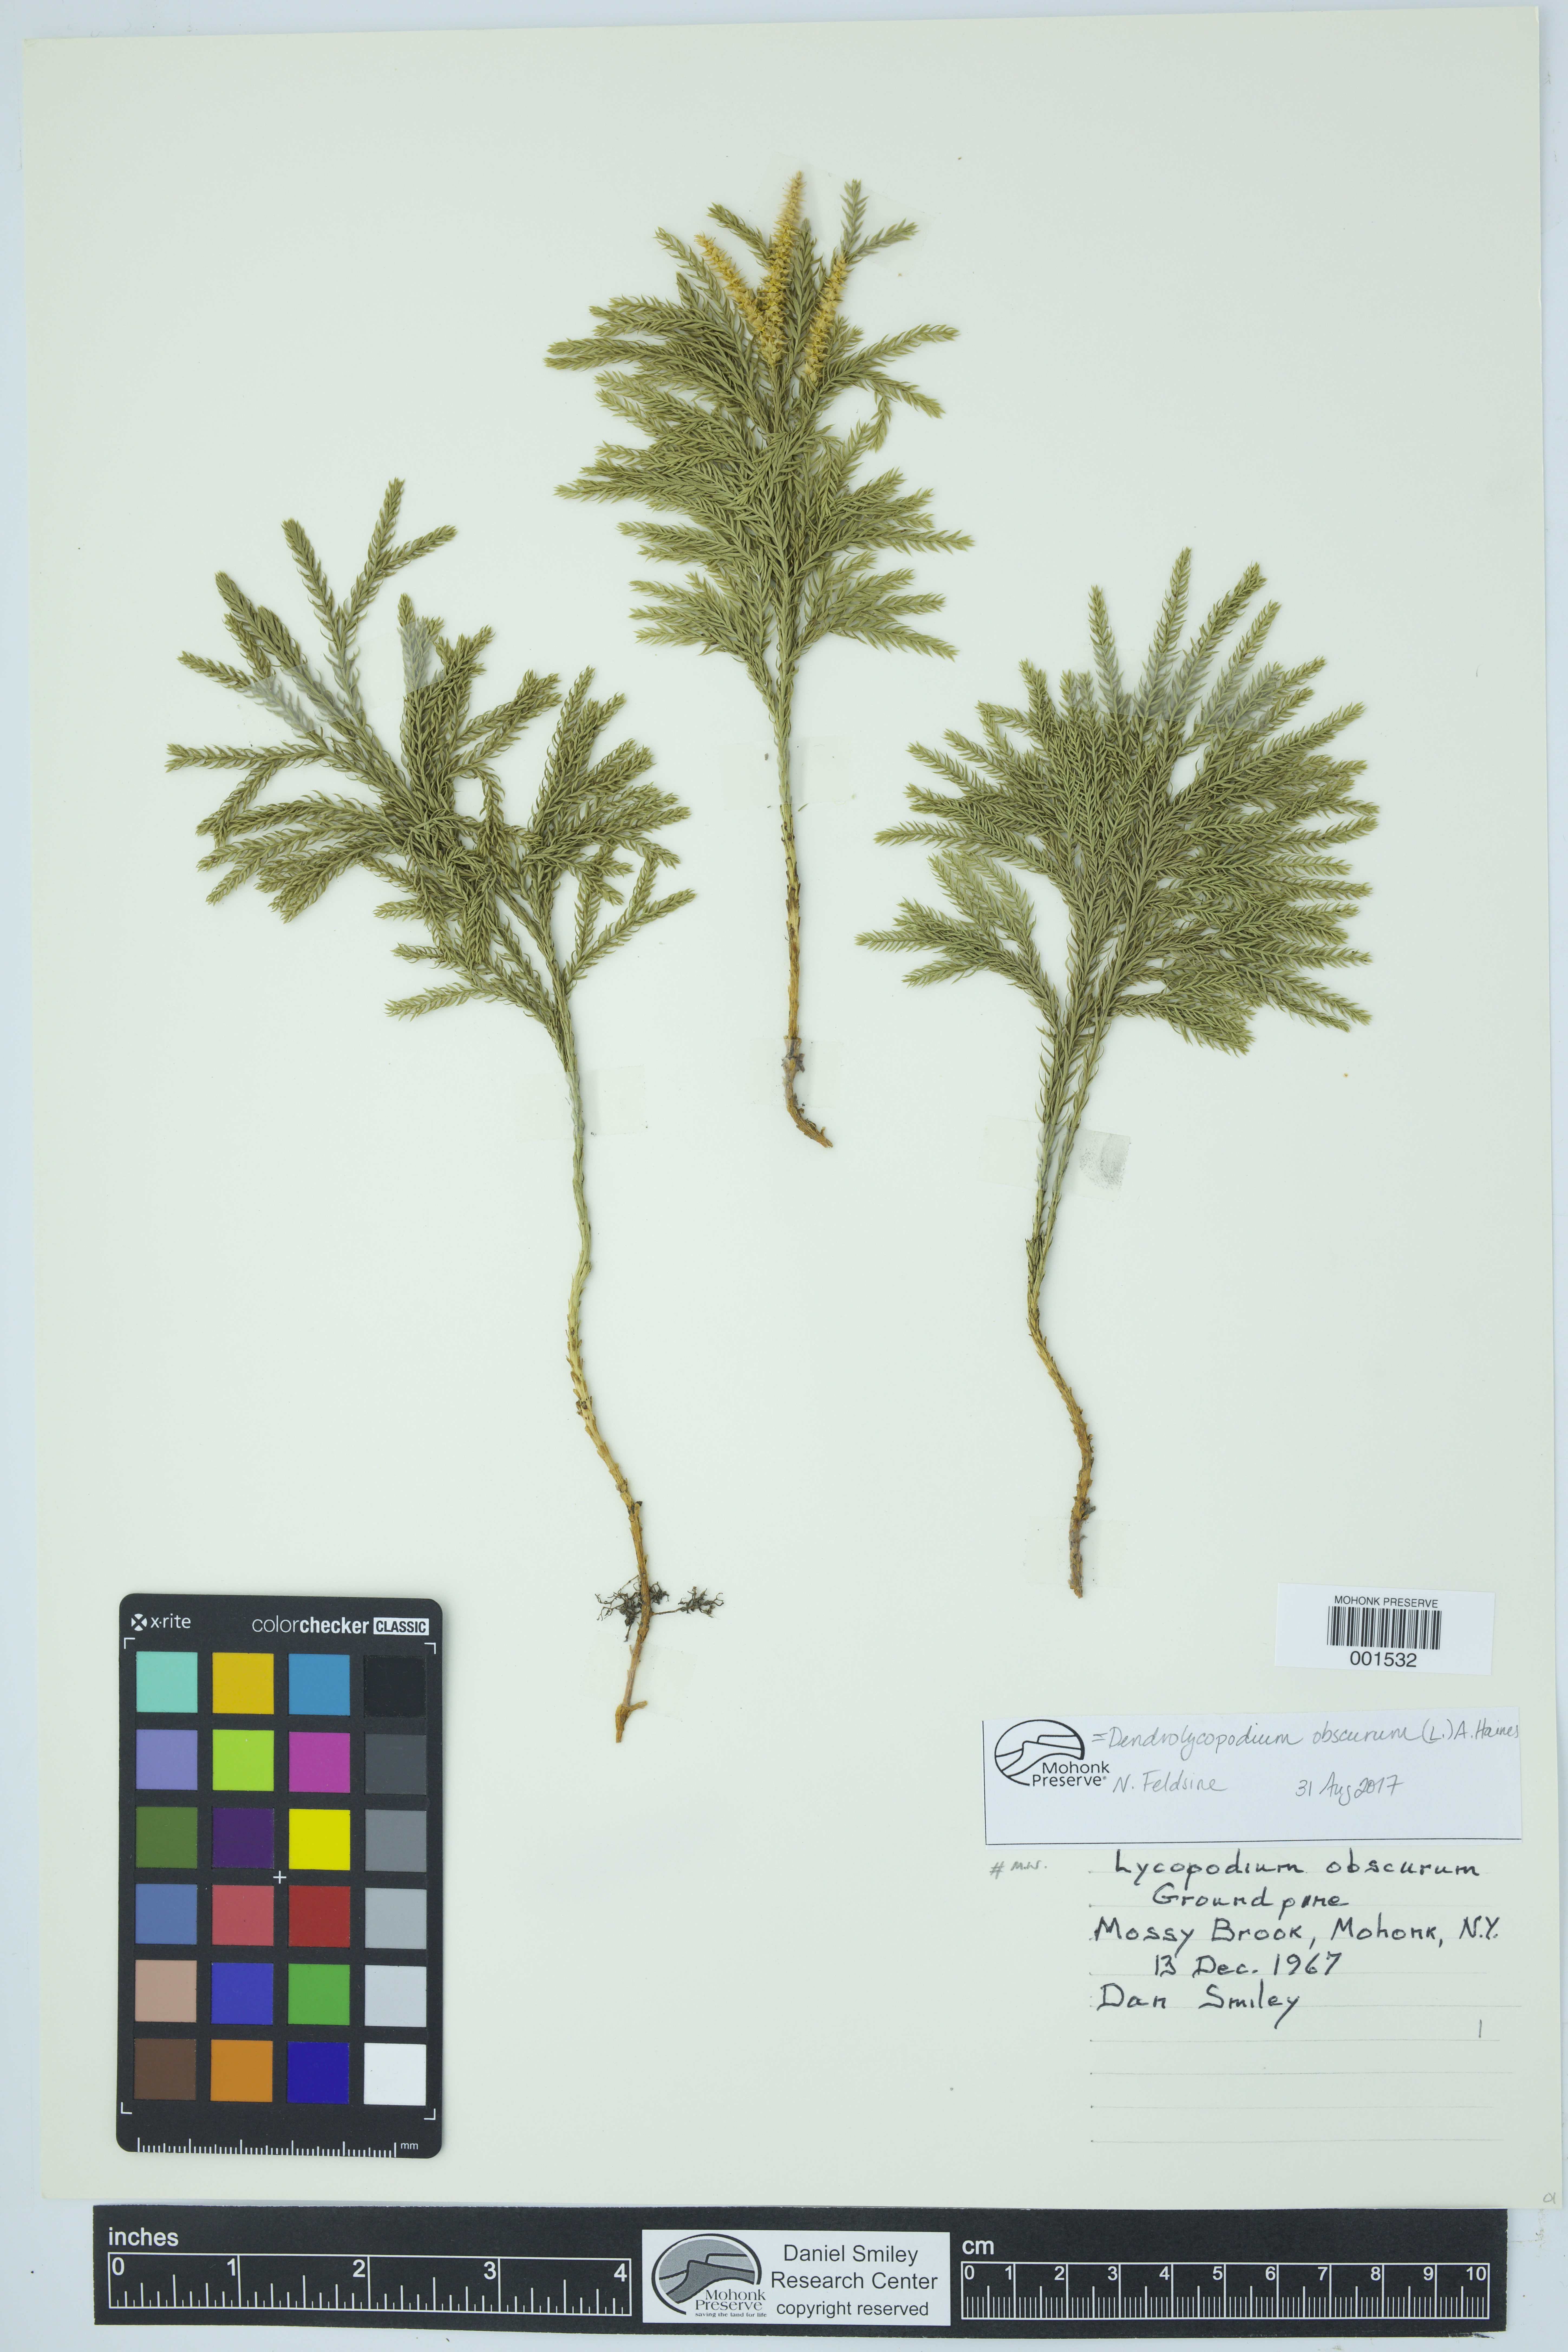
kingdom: Plantae
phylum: Tracheophyta
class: Lycopodiopsida
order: Lycopodiales
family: Lycopodiaceae
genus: Dendrolycopodium
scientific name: Dendrolycopodium obscurum
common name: Common ground-pine
